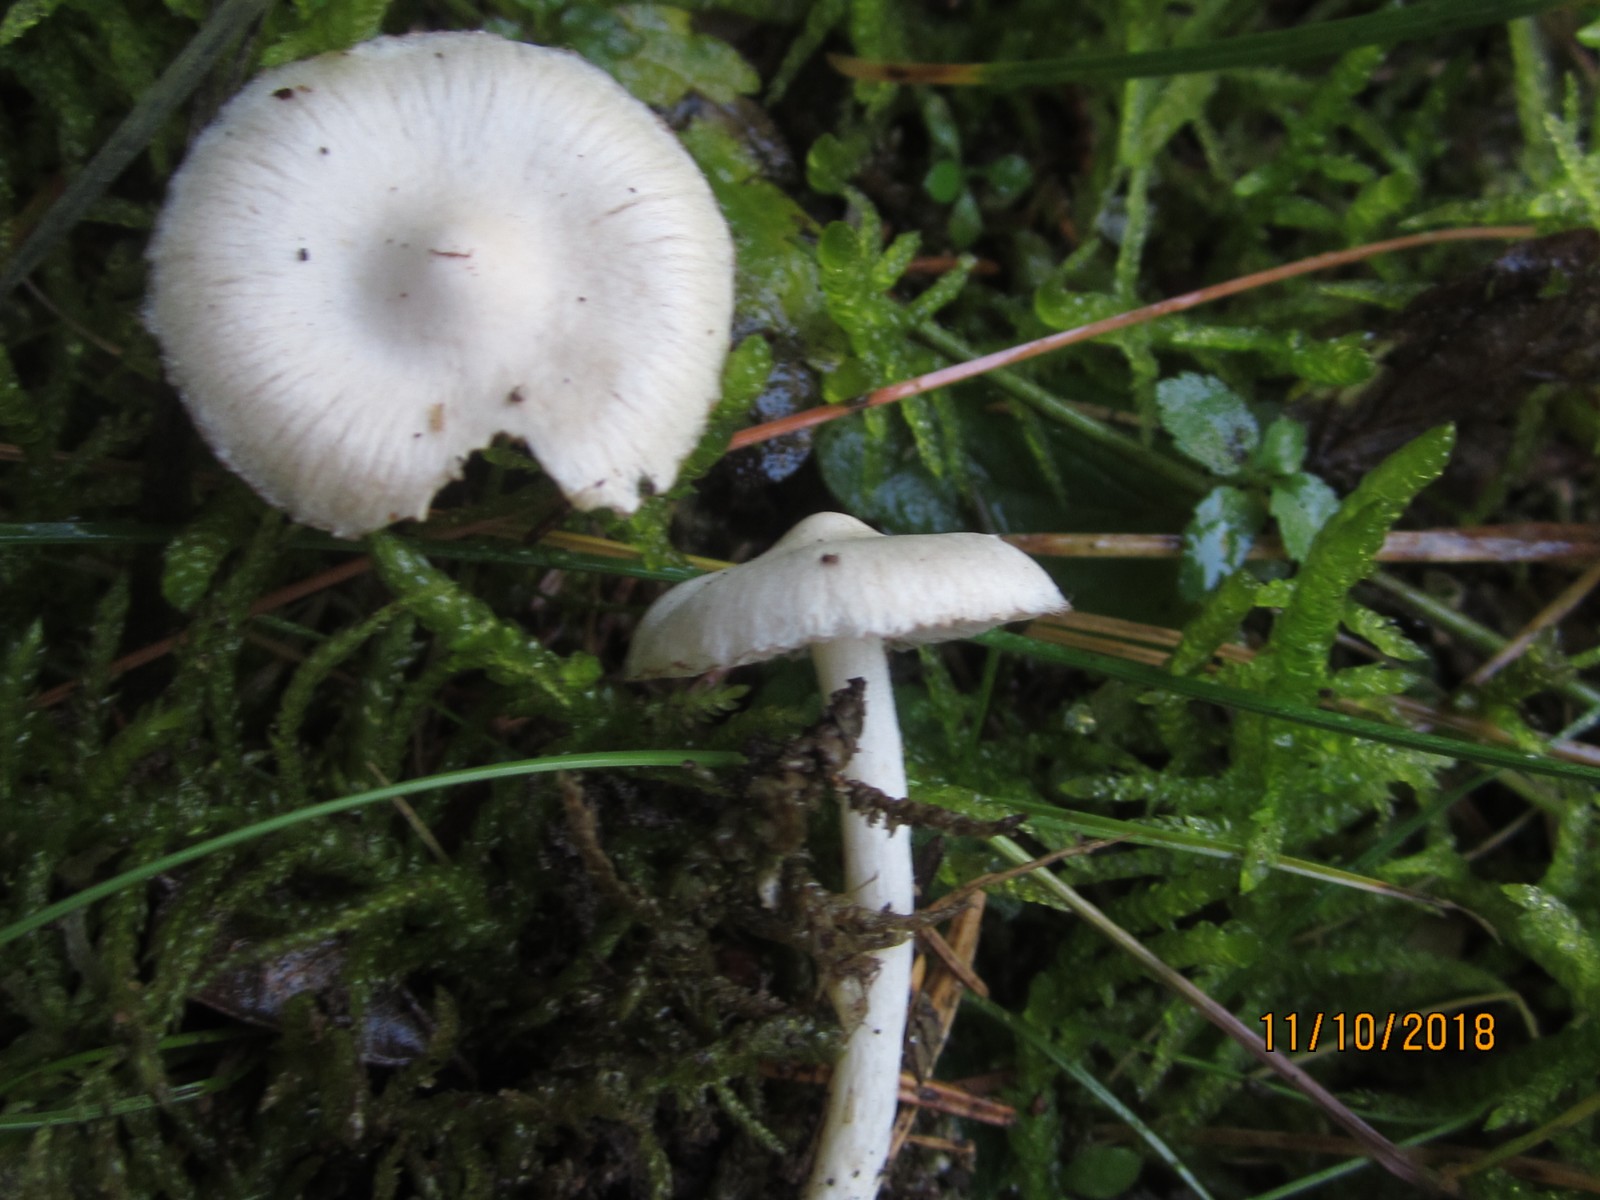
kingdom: Fungi
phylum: Basidiomycota
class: Agaricomycetes
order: Agaricales
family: Inocybaceae
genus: Inocybe
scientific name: Inocybe
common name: almindelig trævlhat
